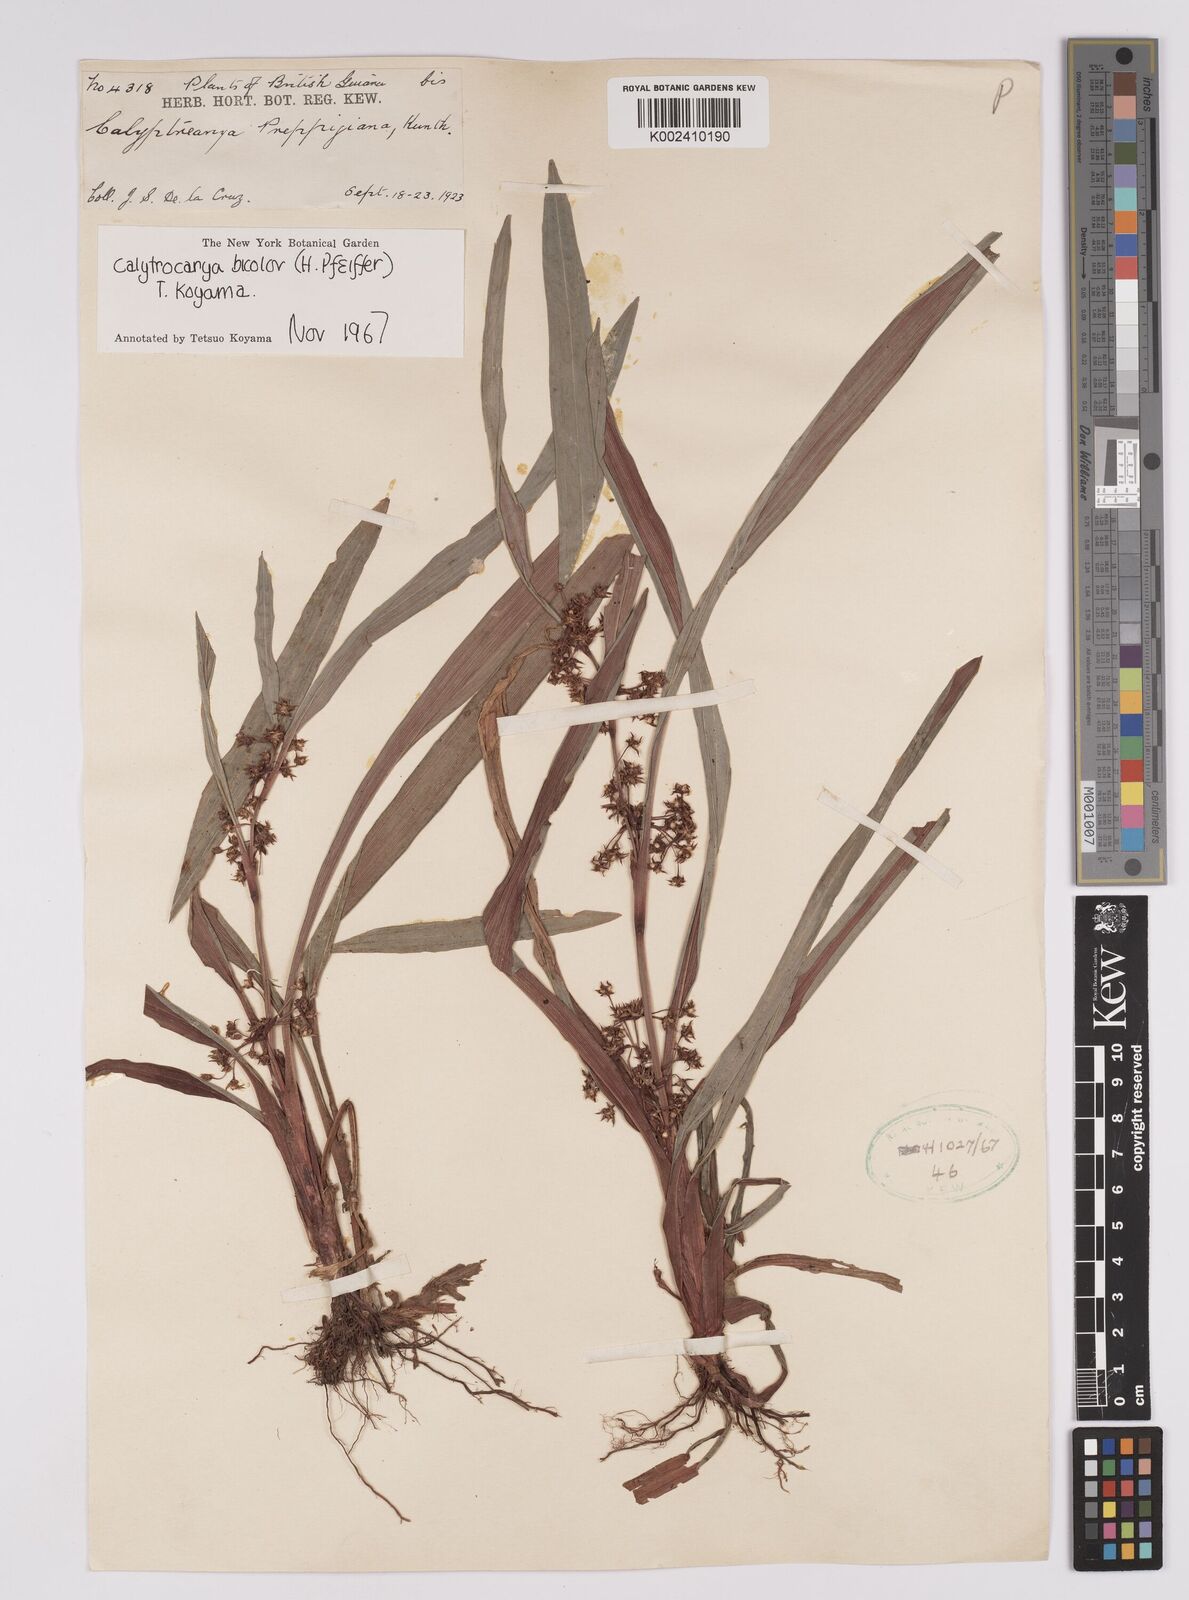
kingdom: Plantae
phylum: Tracheophyta
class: Liliopsida
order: Poales
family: Cyperaceae
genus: Calyptrocarya
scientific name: Calyptrocarya bicolor
